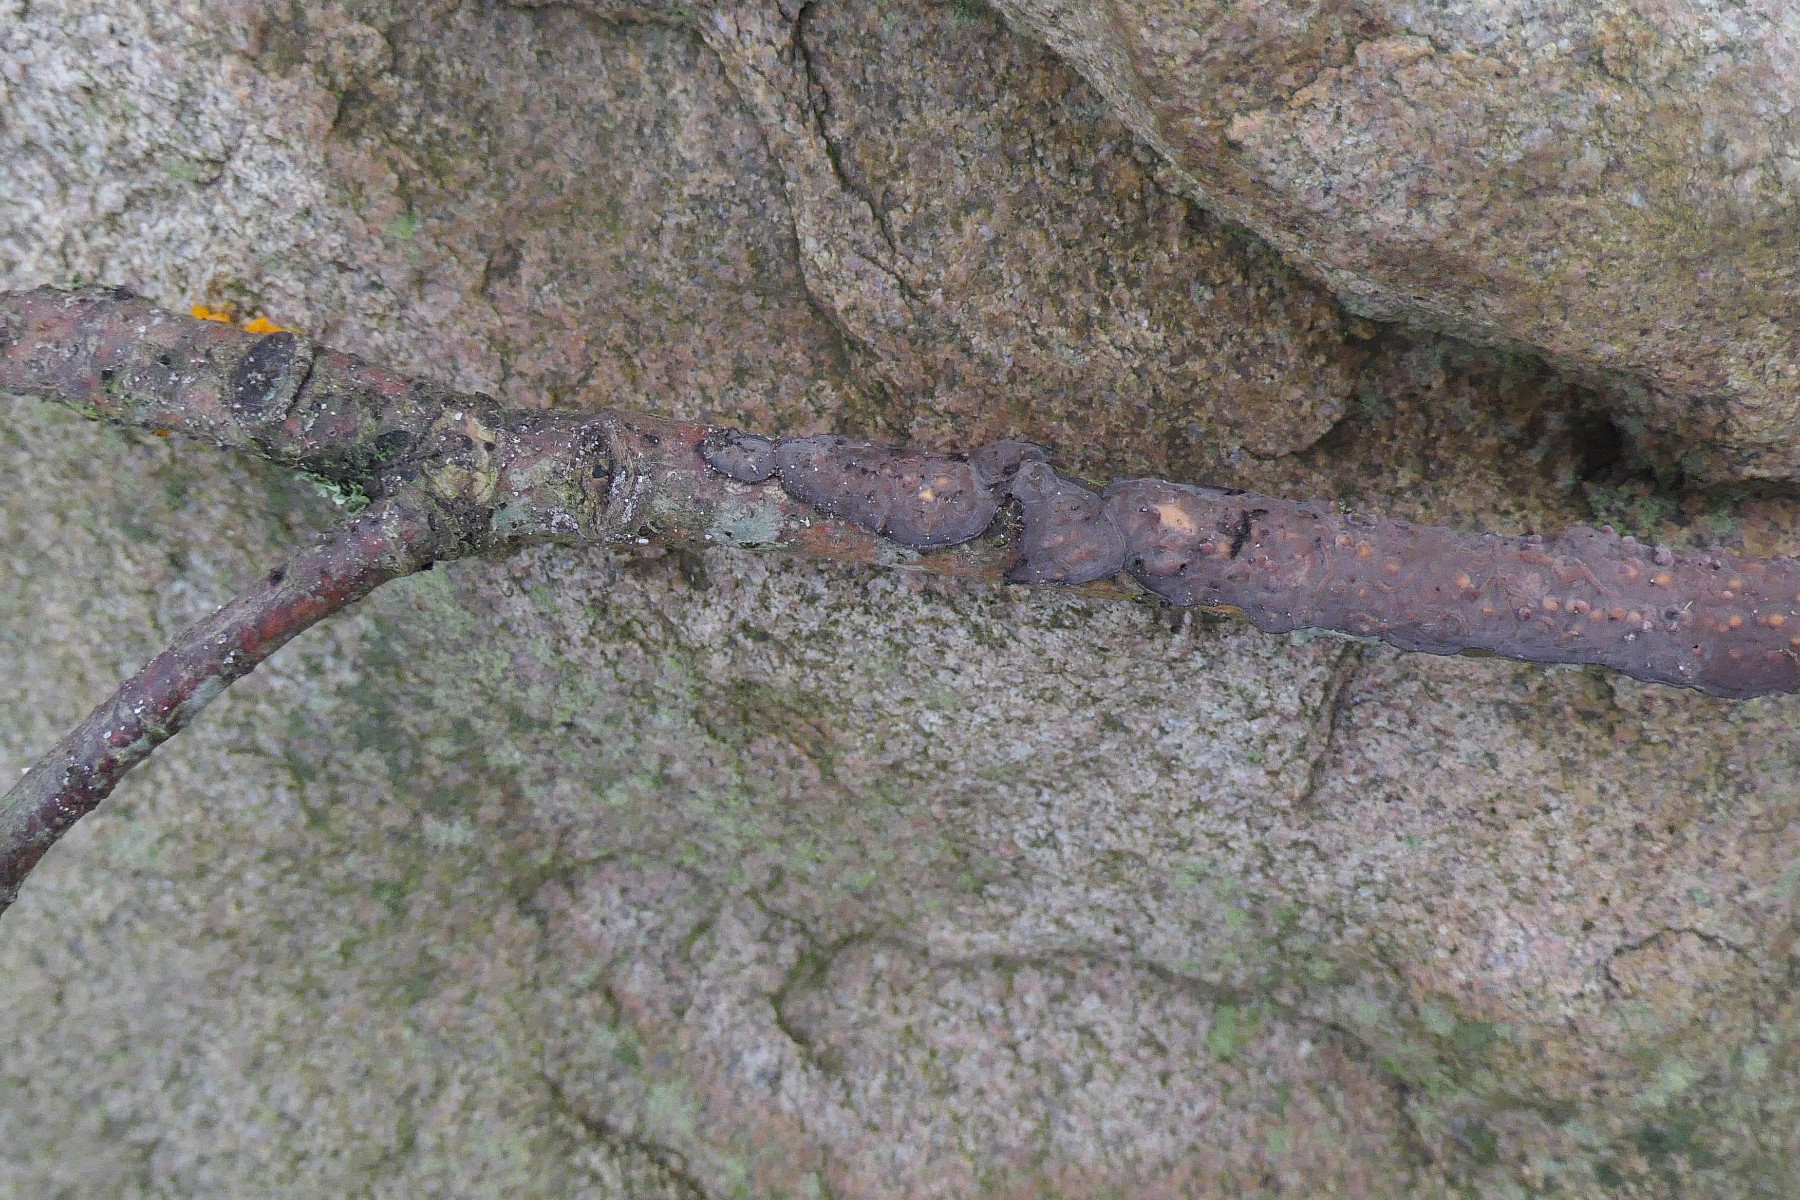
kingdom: Fungi
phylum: Basidiomycota
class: Agaricomycetes
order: Russulales
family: Peniophoraceae
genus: Peniophora
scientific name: Peniophora quercina
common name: ege-voksskind
